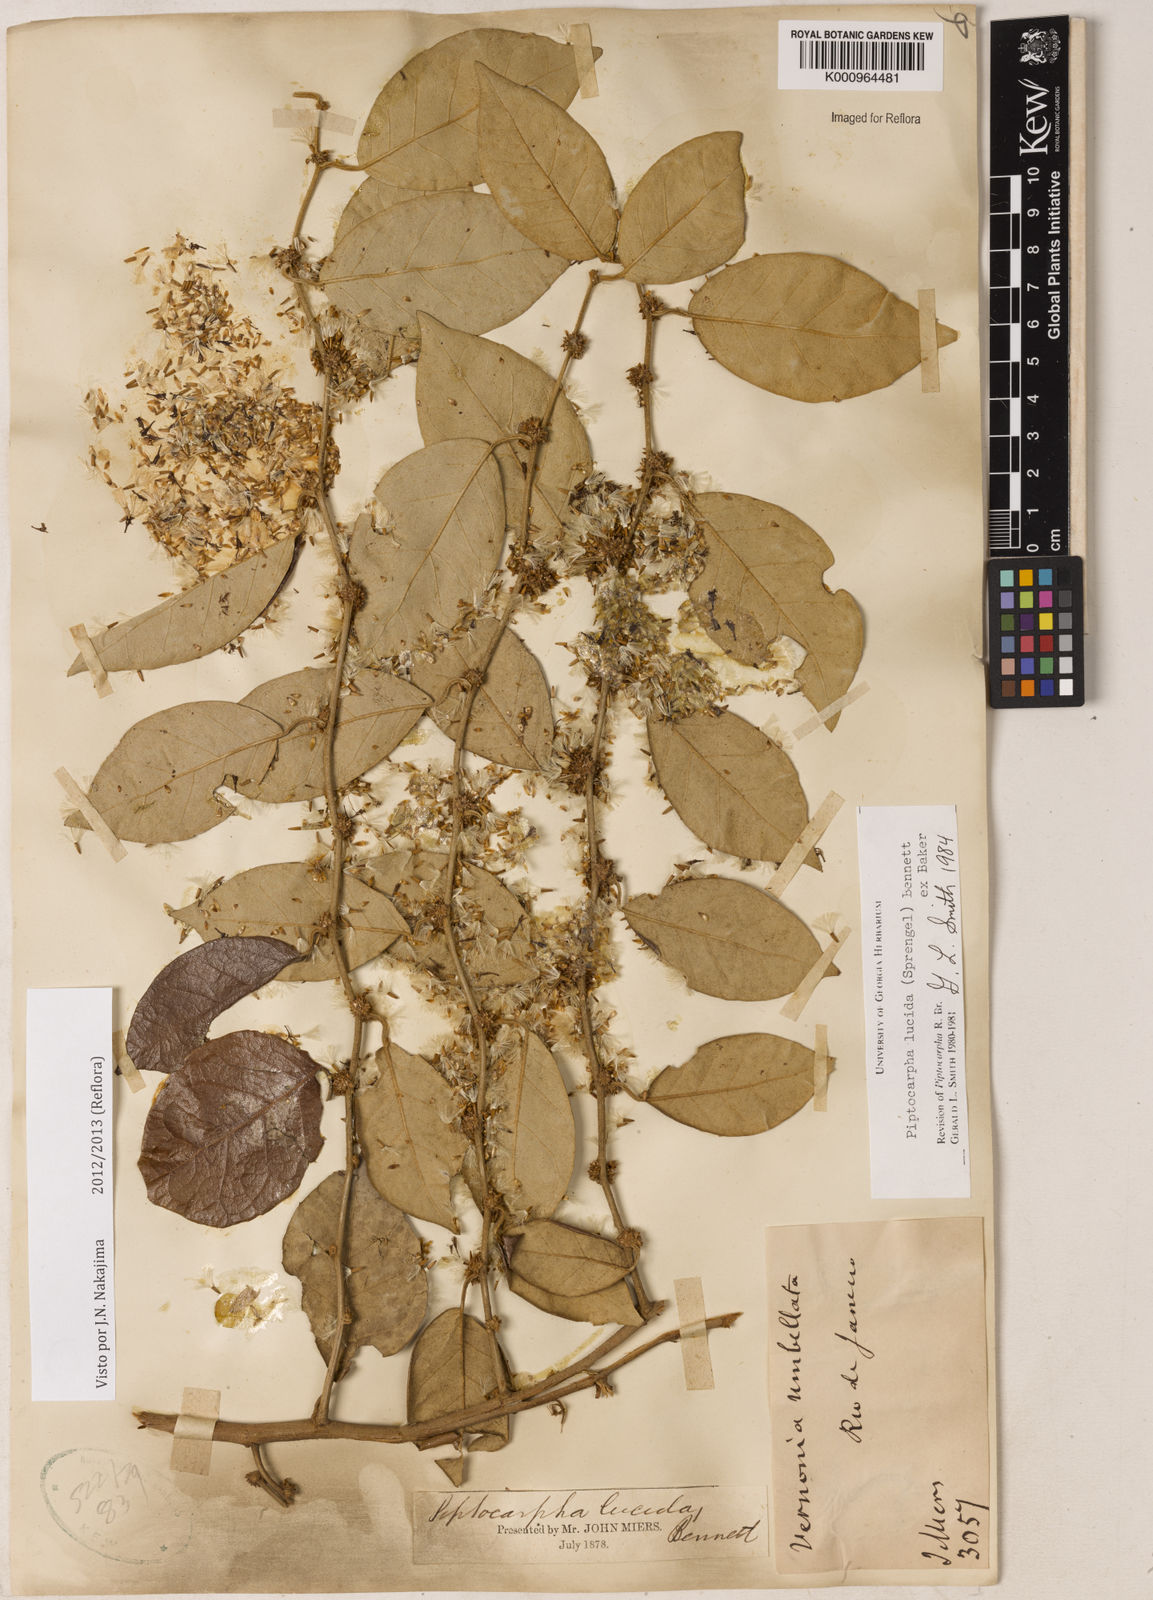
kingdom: Plantae
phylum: Tracheophyta
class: Magnoliopsida
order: Asterales
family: Asteraceae
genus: Piptocarpha
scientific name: Piptocarpha lucida
